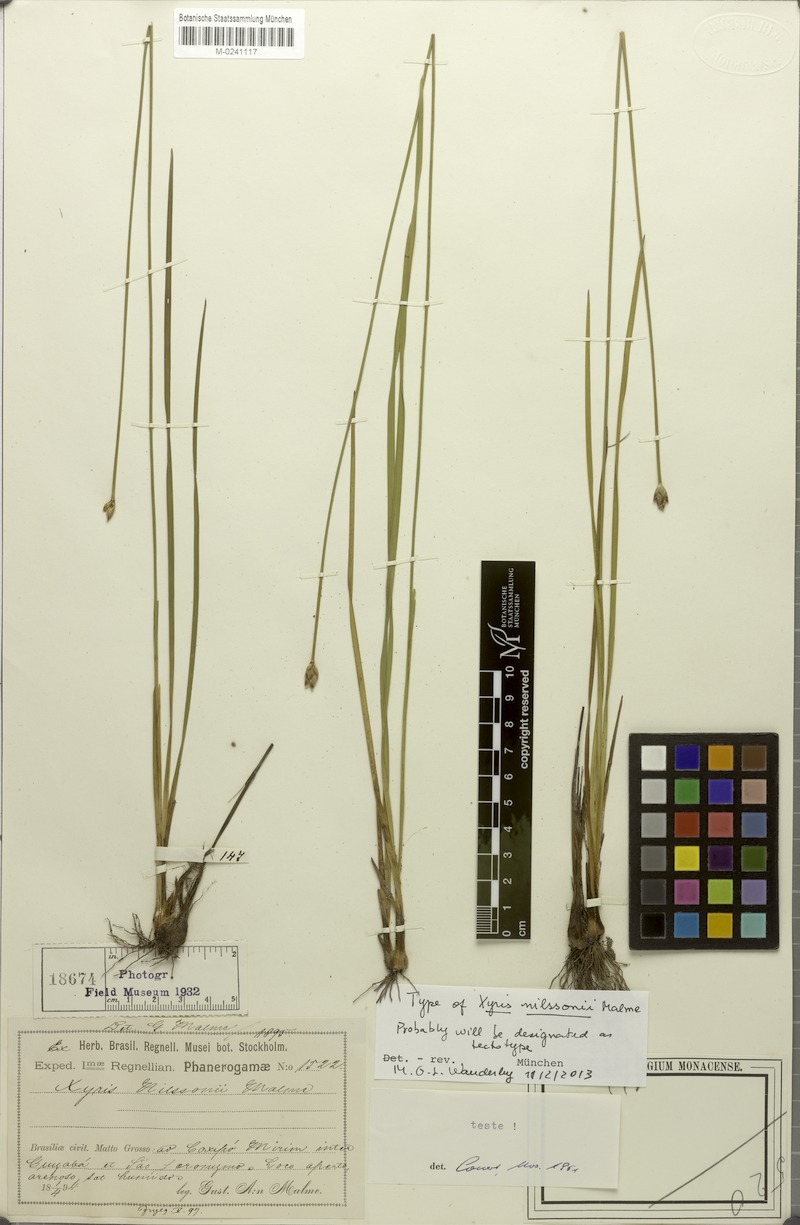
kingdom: Plantae
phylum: Tracheophyta
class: Liliopsida
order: Poales
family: Xyridaceae
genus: Xyris
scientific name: Xyris nilssonii
